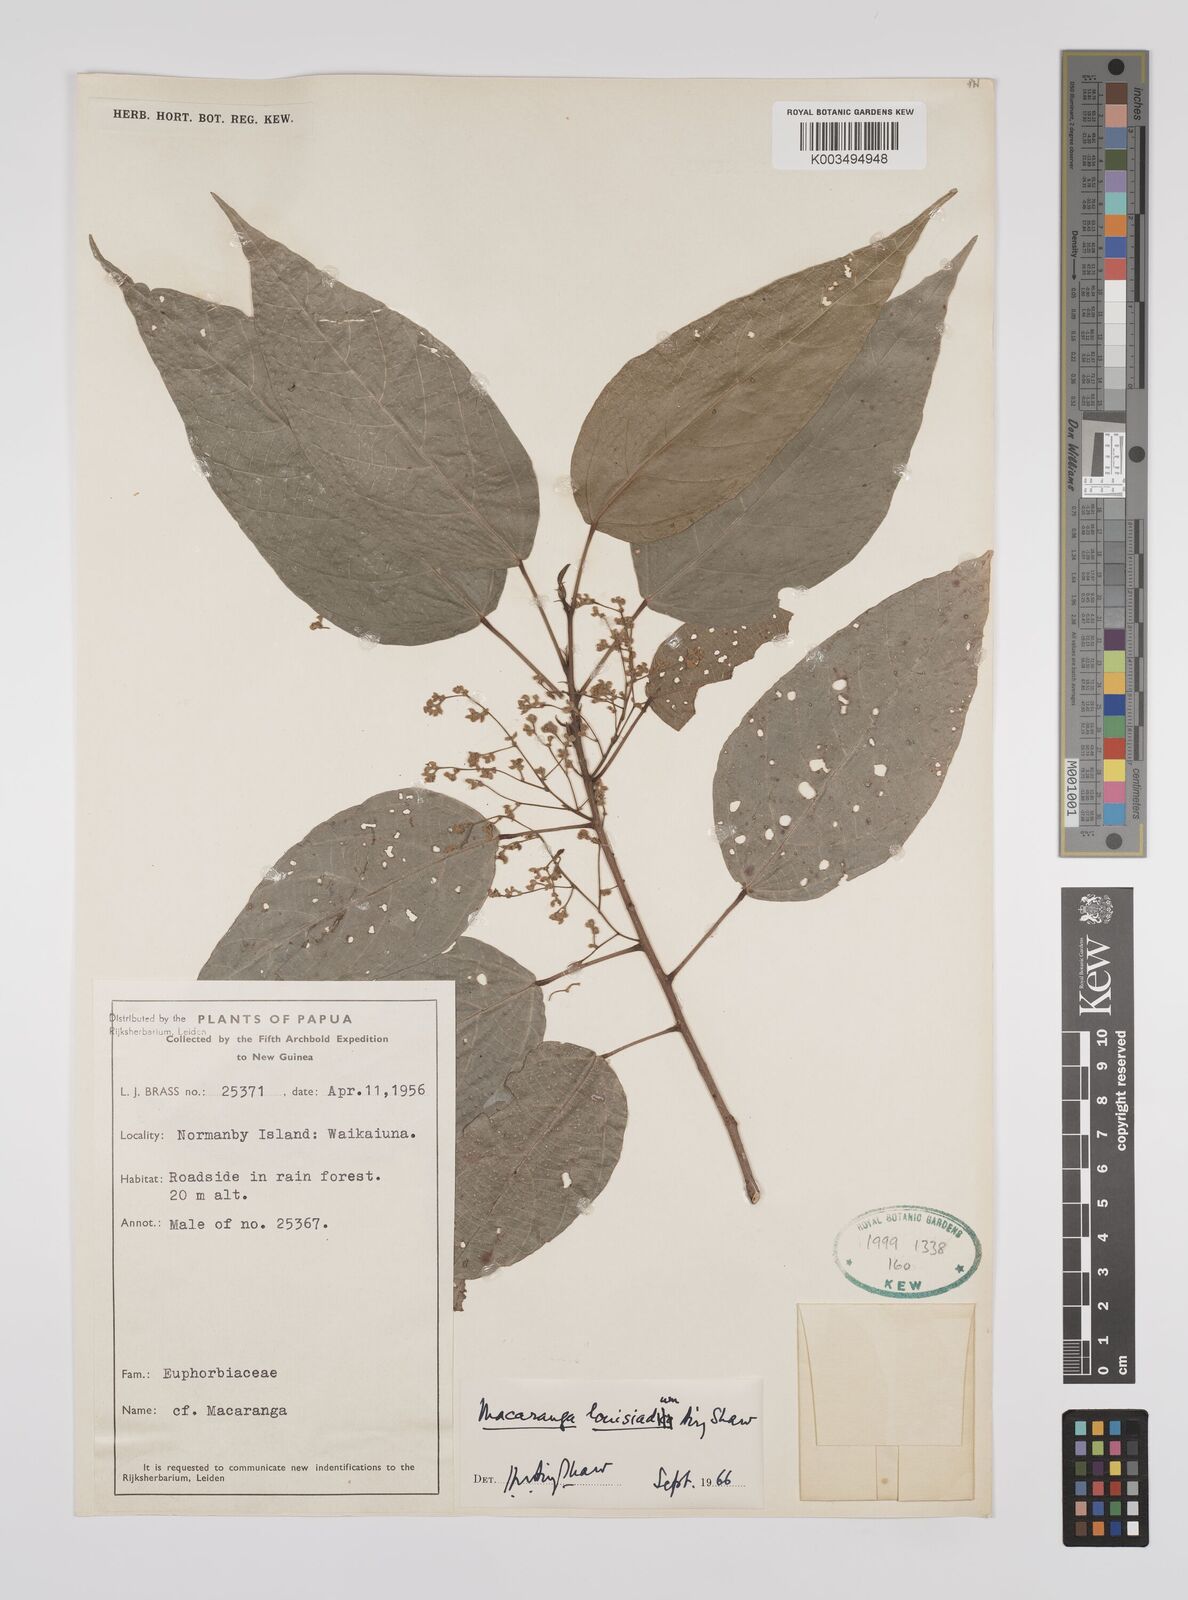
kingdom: Plantae
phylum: Tracheophyta
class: Magnoliopsida
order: Malpighiales
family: Euphorbiaceae
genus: Macaranga
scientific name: Macaranga louisiadum
